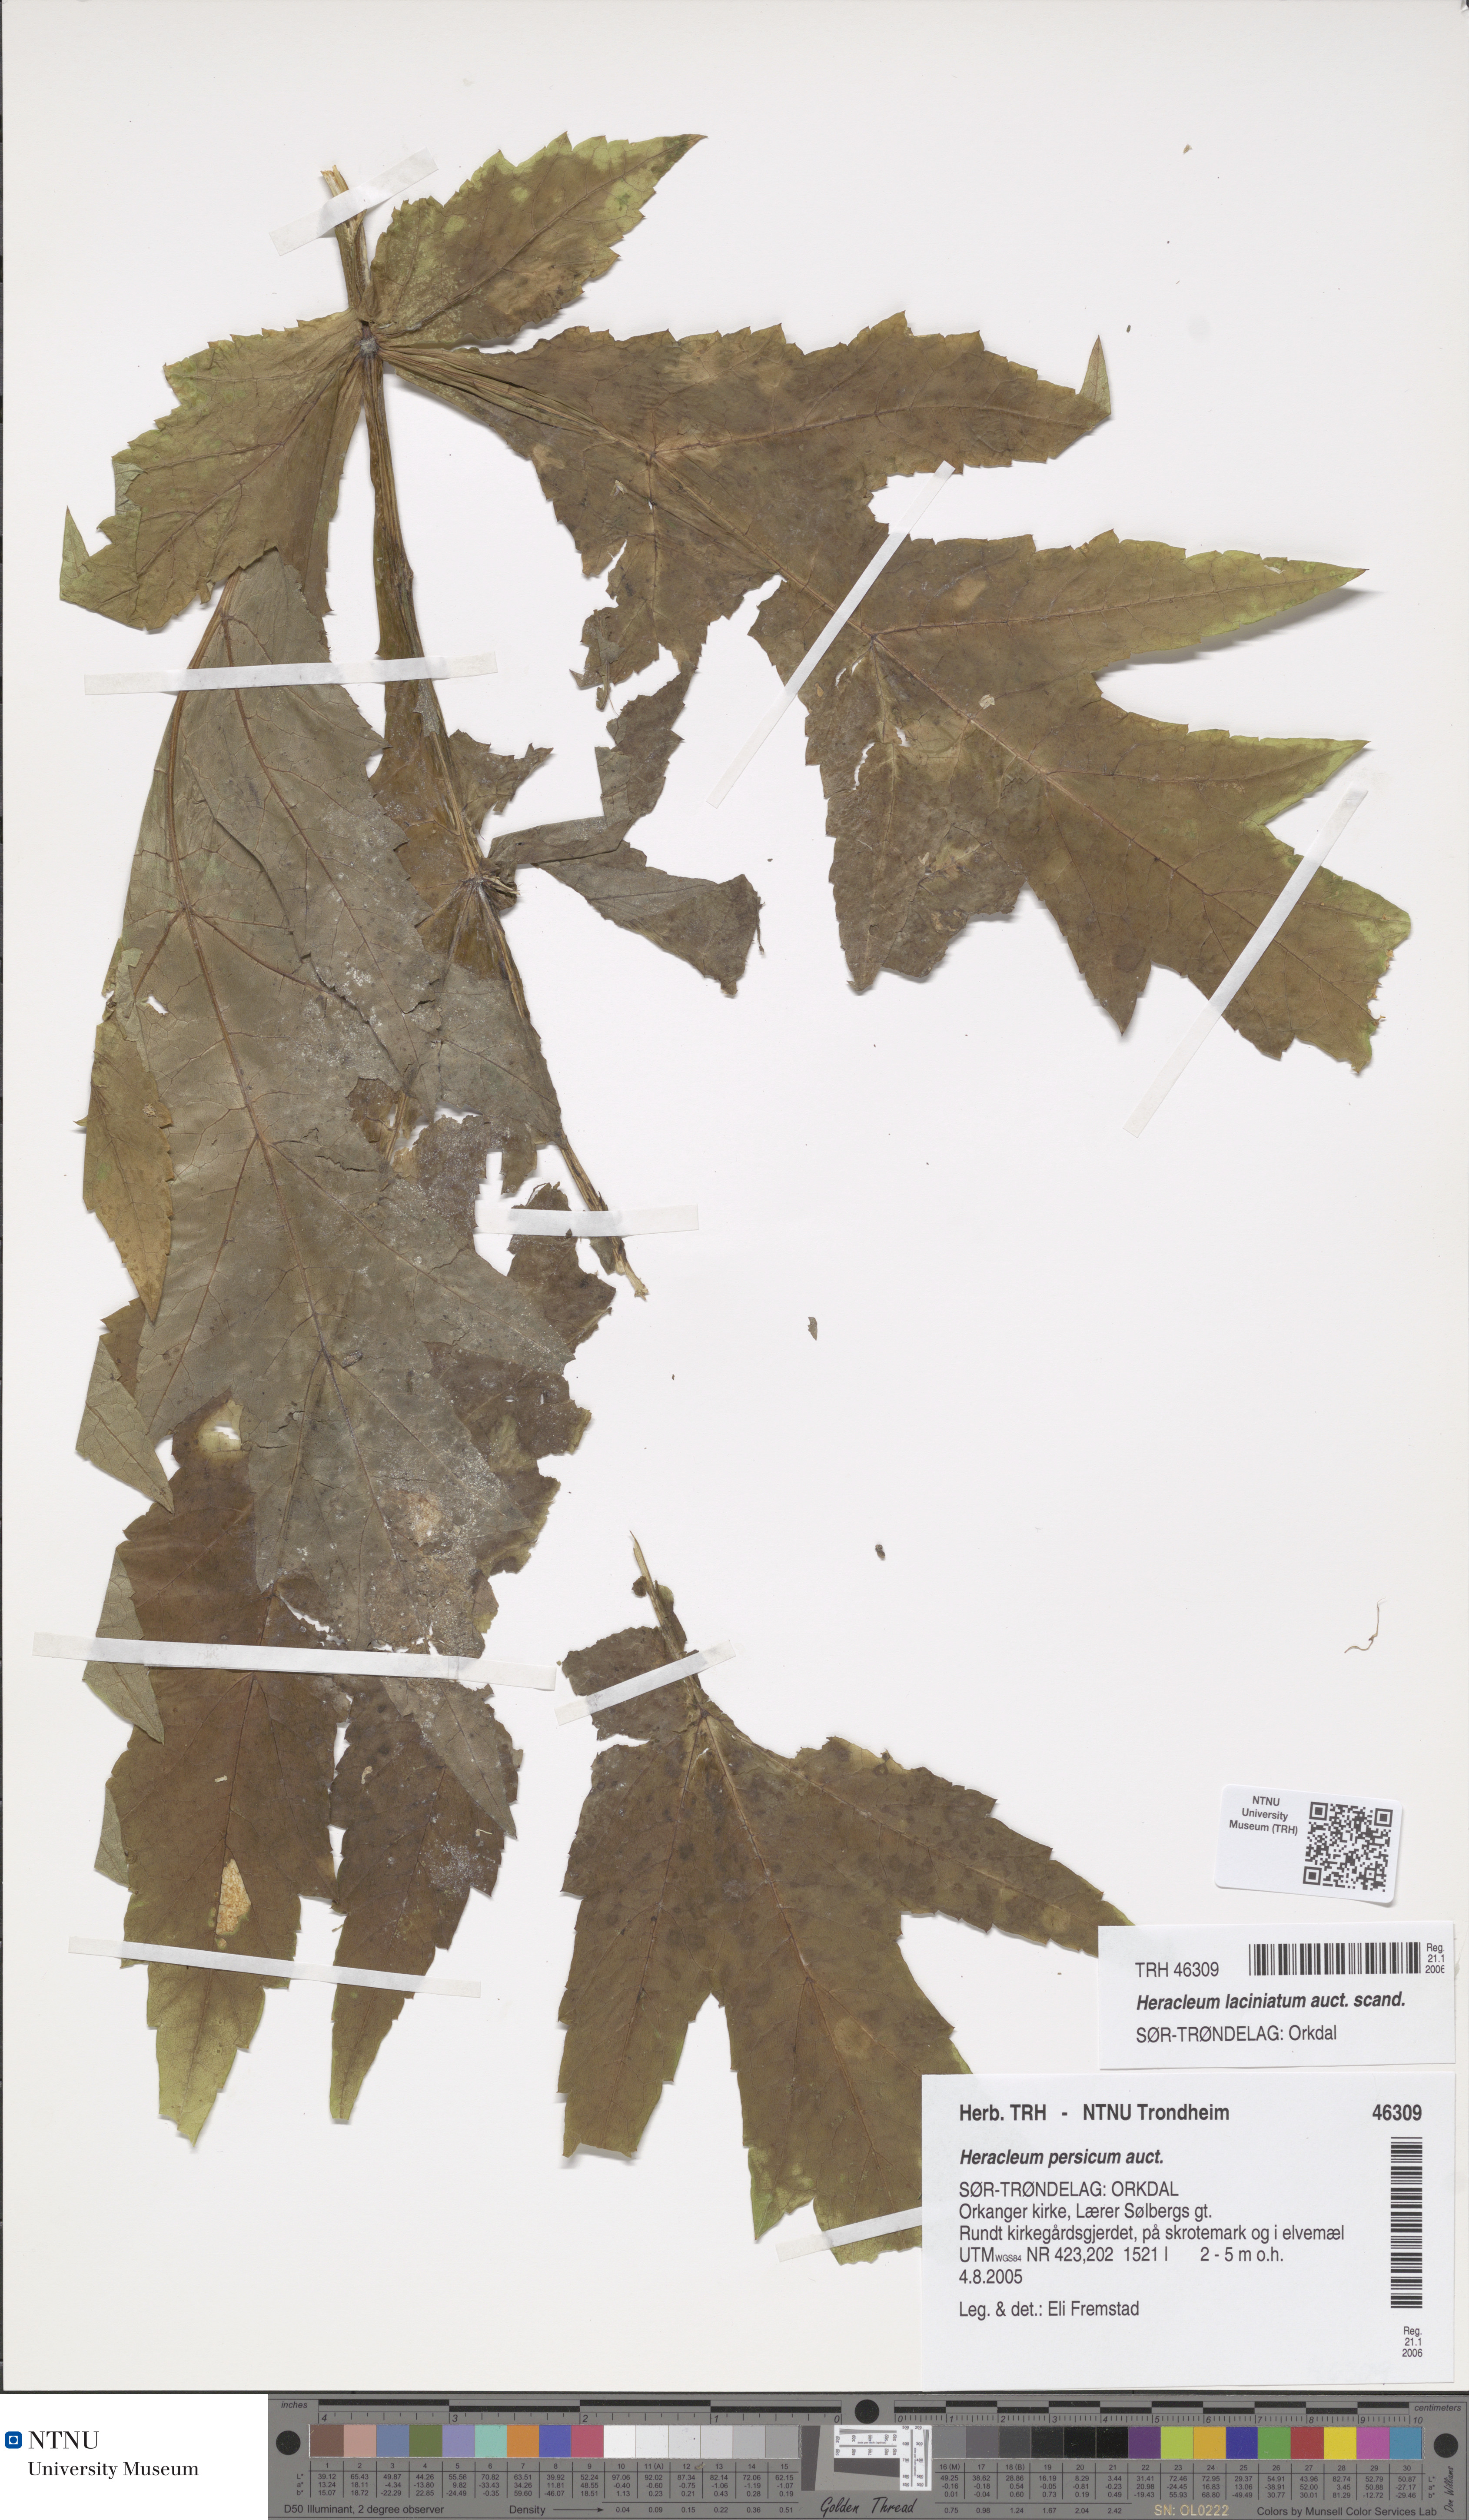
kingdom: Plantae
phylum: Tracheophyta
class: Magnoliopsida
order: Apiales
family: Apiaceae
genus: Heracleum
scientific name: Heracleum persicum
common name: Persian hogweed
